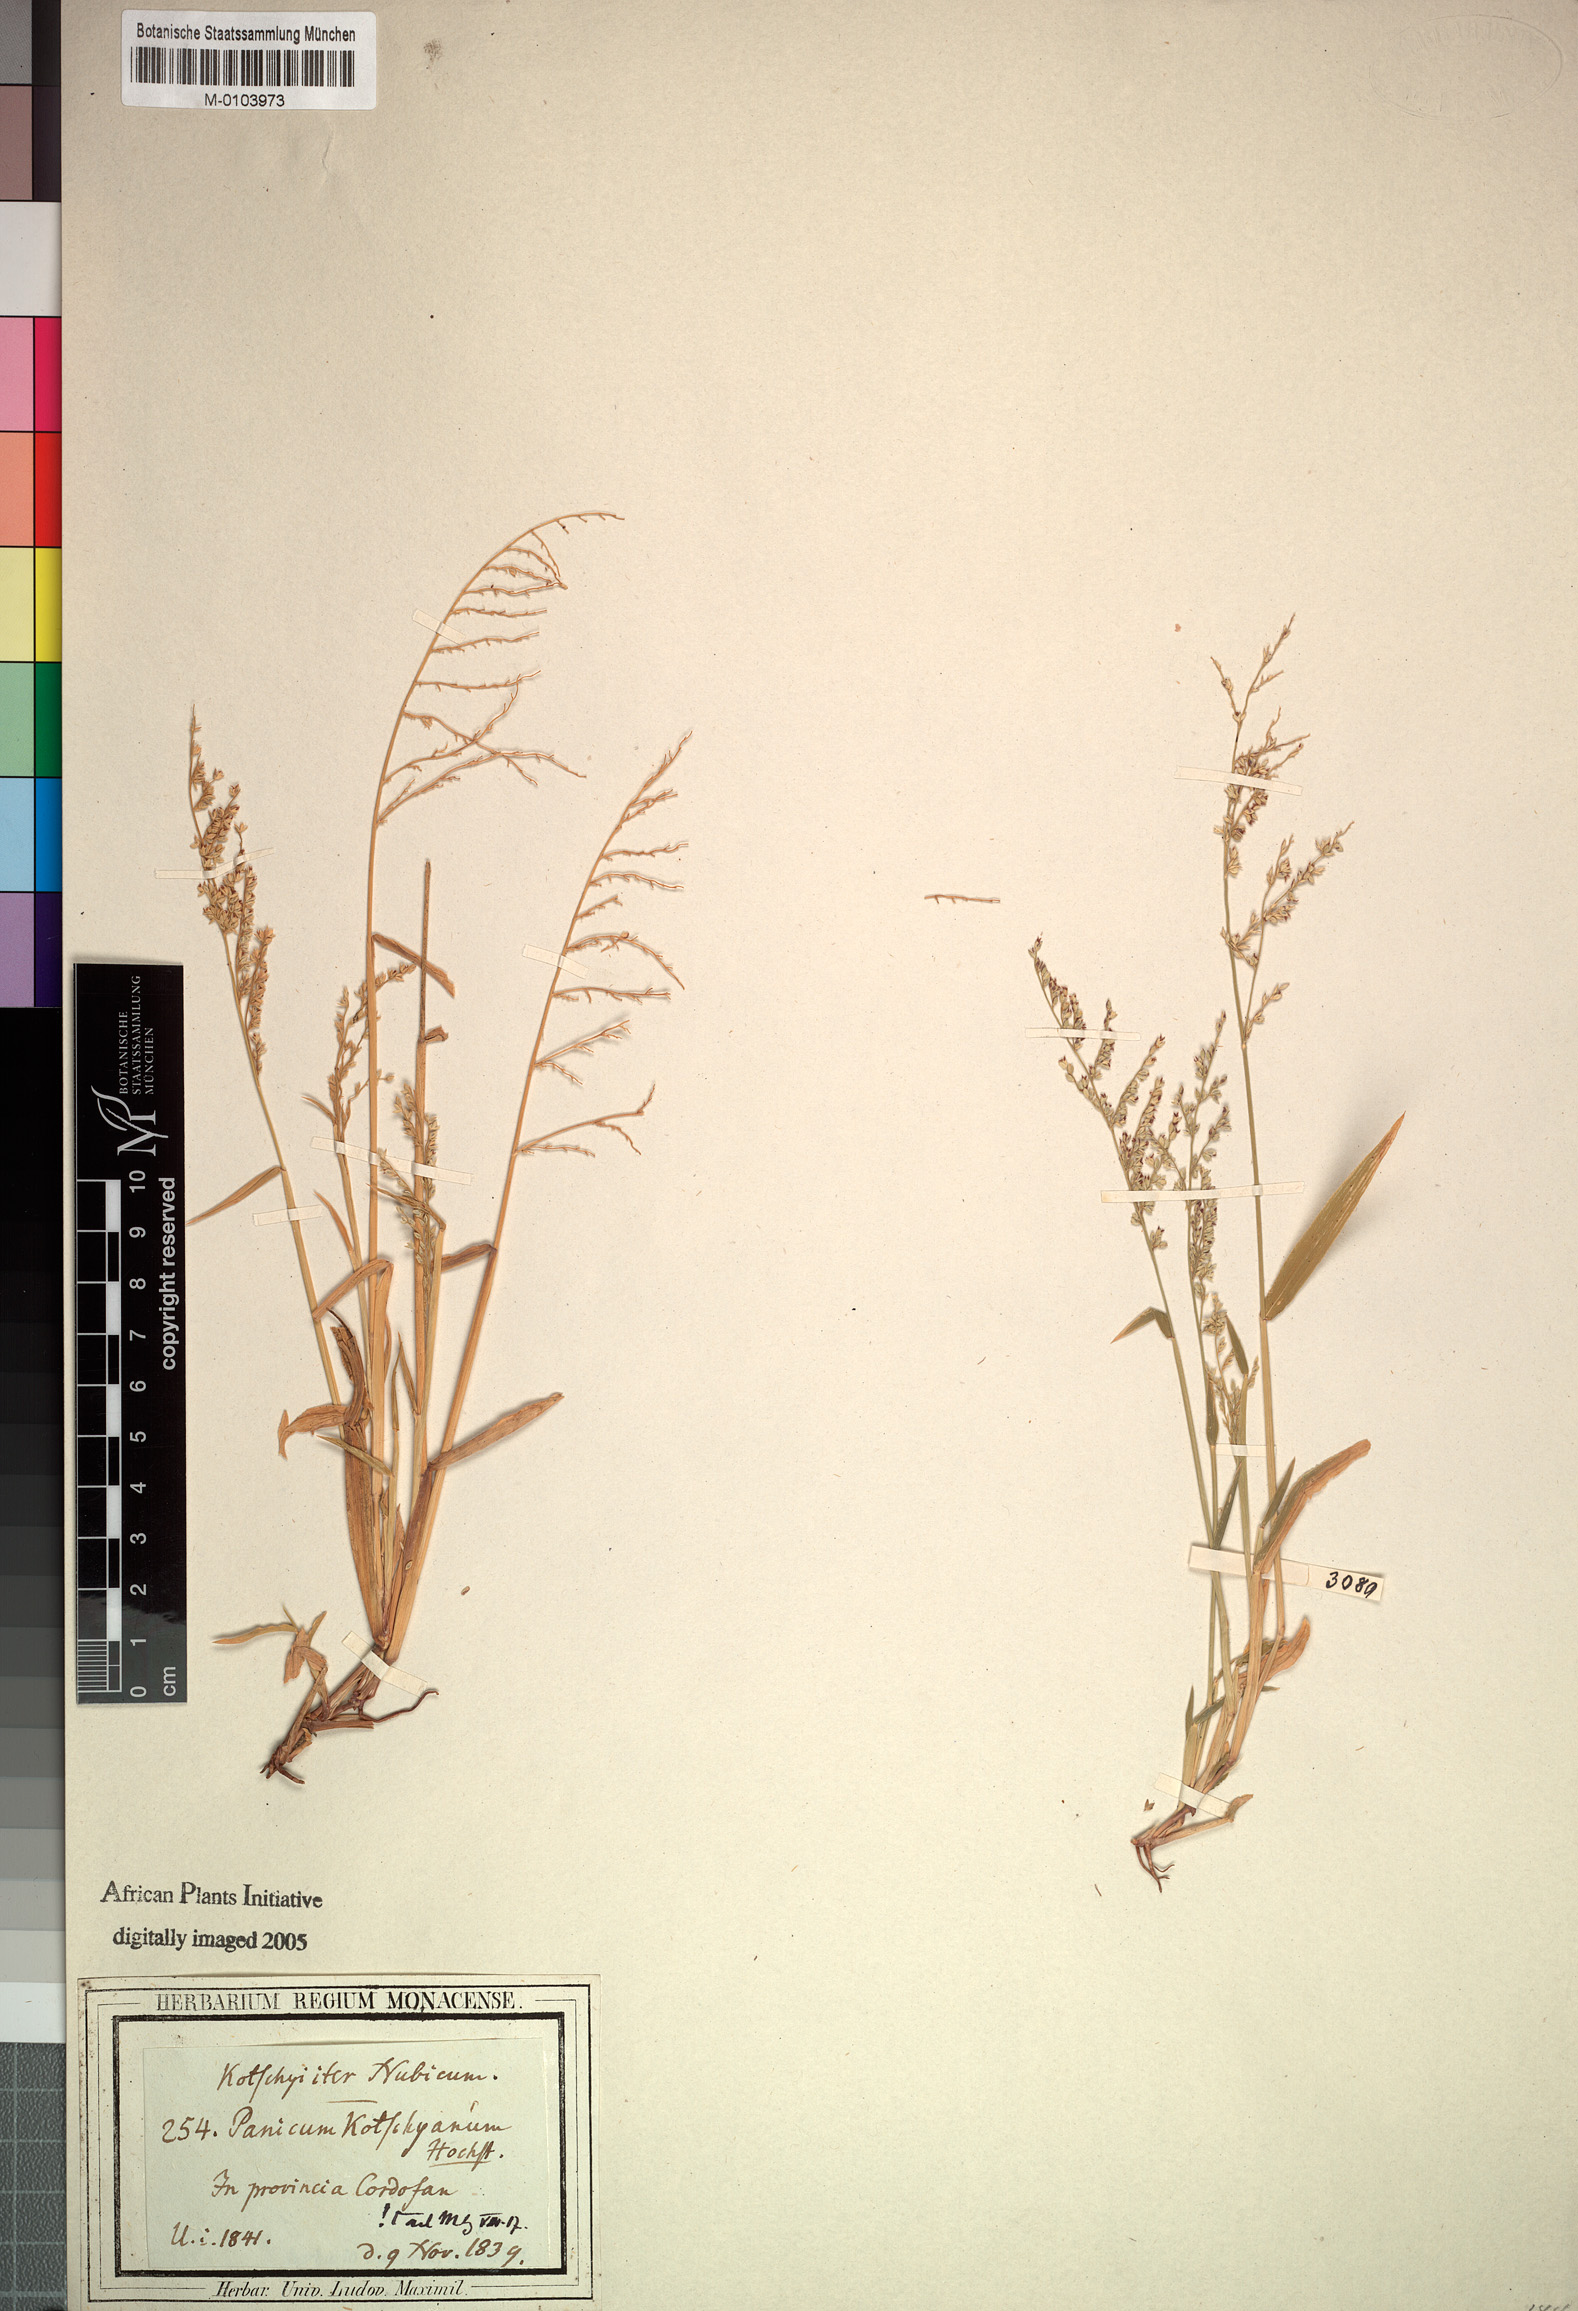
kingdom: Plantae
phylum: Tracheophyta
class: Liliopsida
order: Poales
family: Poaceae
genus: Urochloa
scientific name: Urochloa comata
